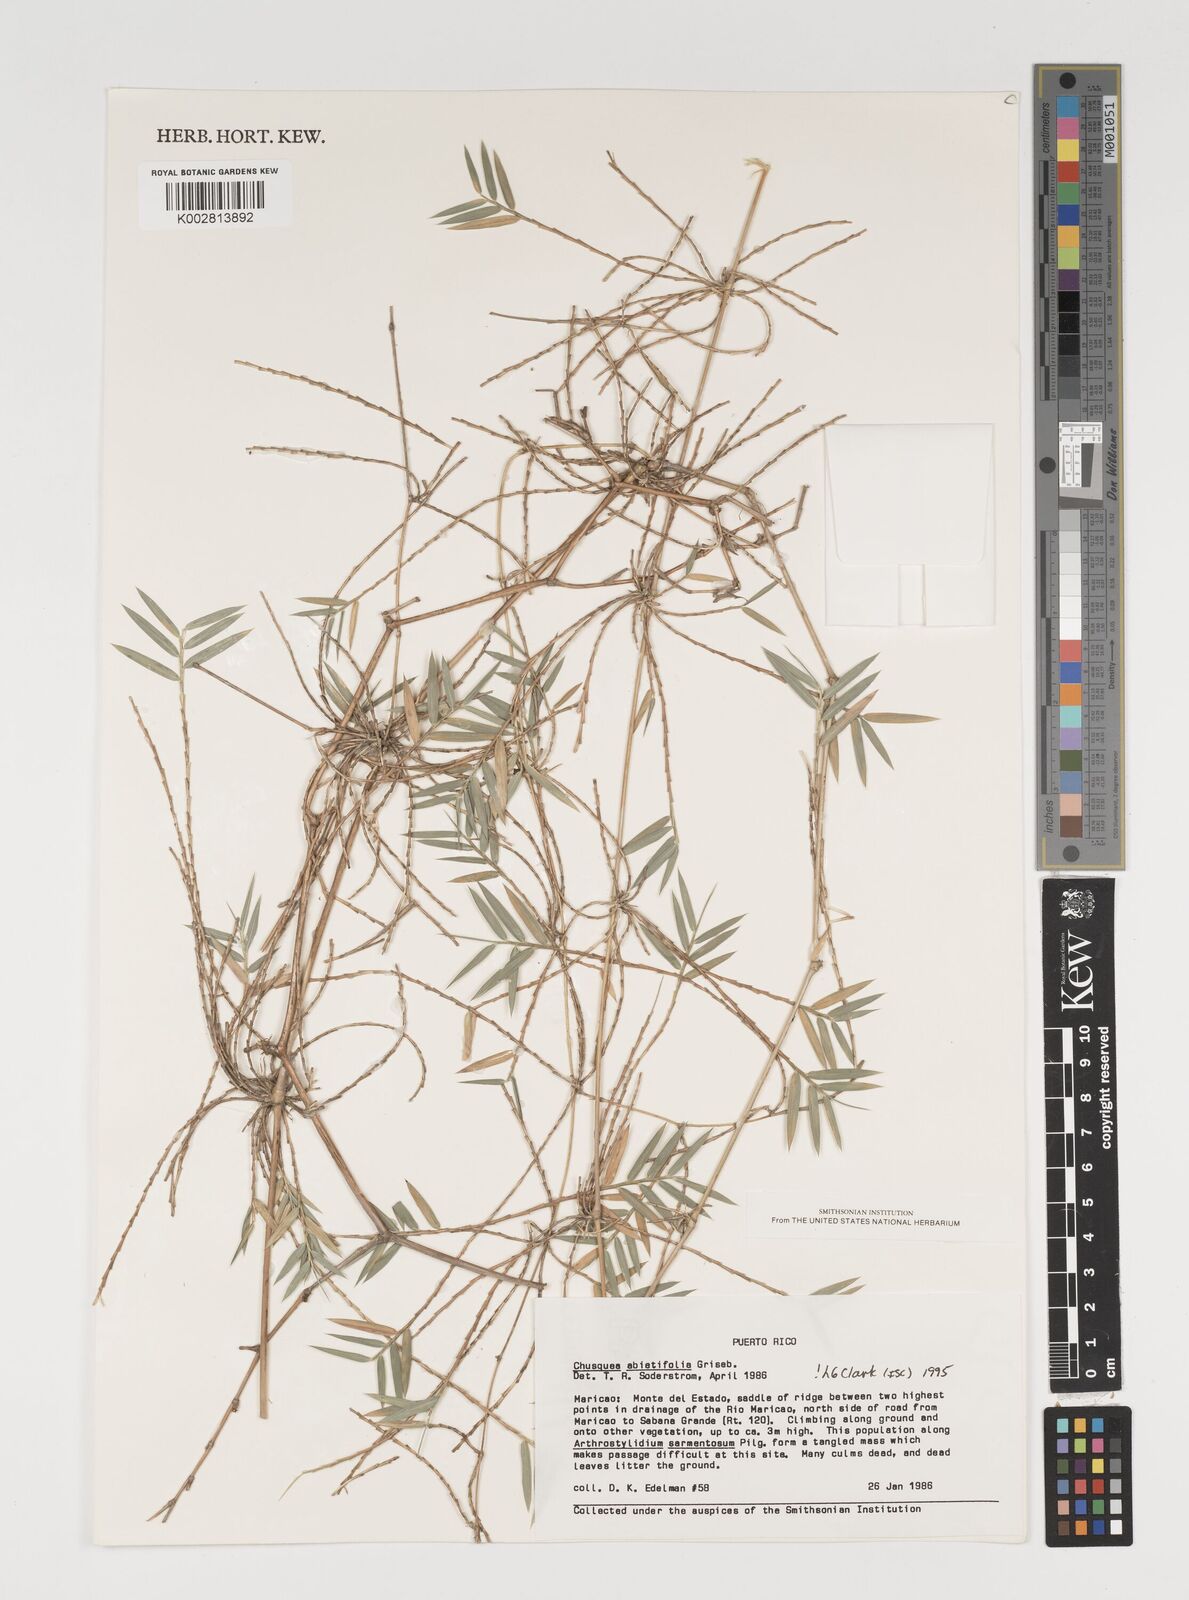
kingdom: Plantae
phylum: Tracheophyta
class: Liliopsida
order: Poales
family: Poaceae
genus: Chusquea
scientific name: Chusquea abietifolia
